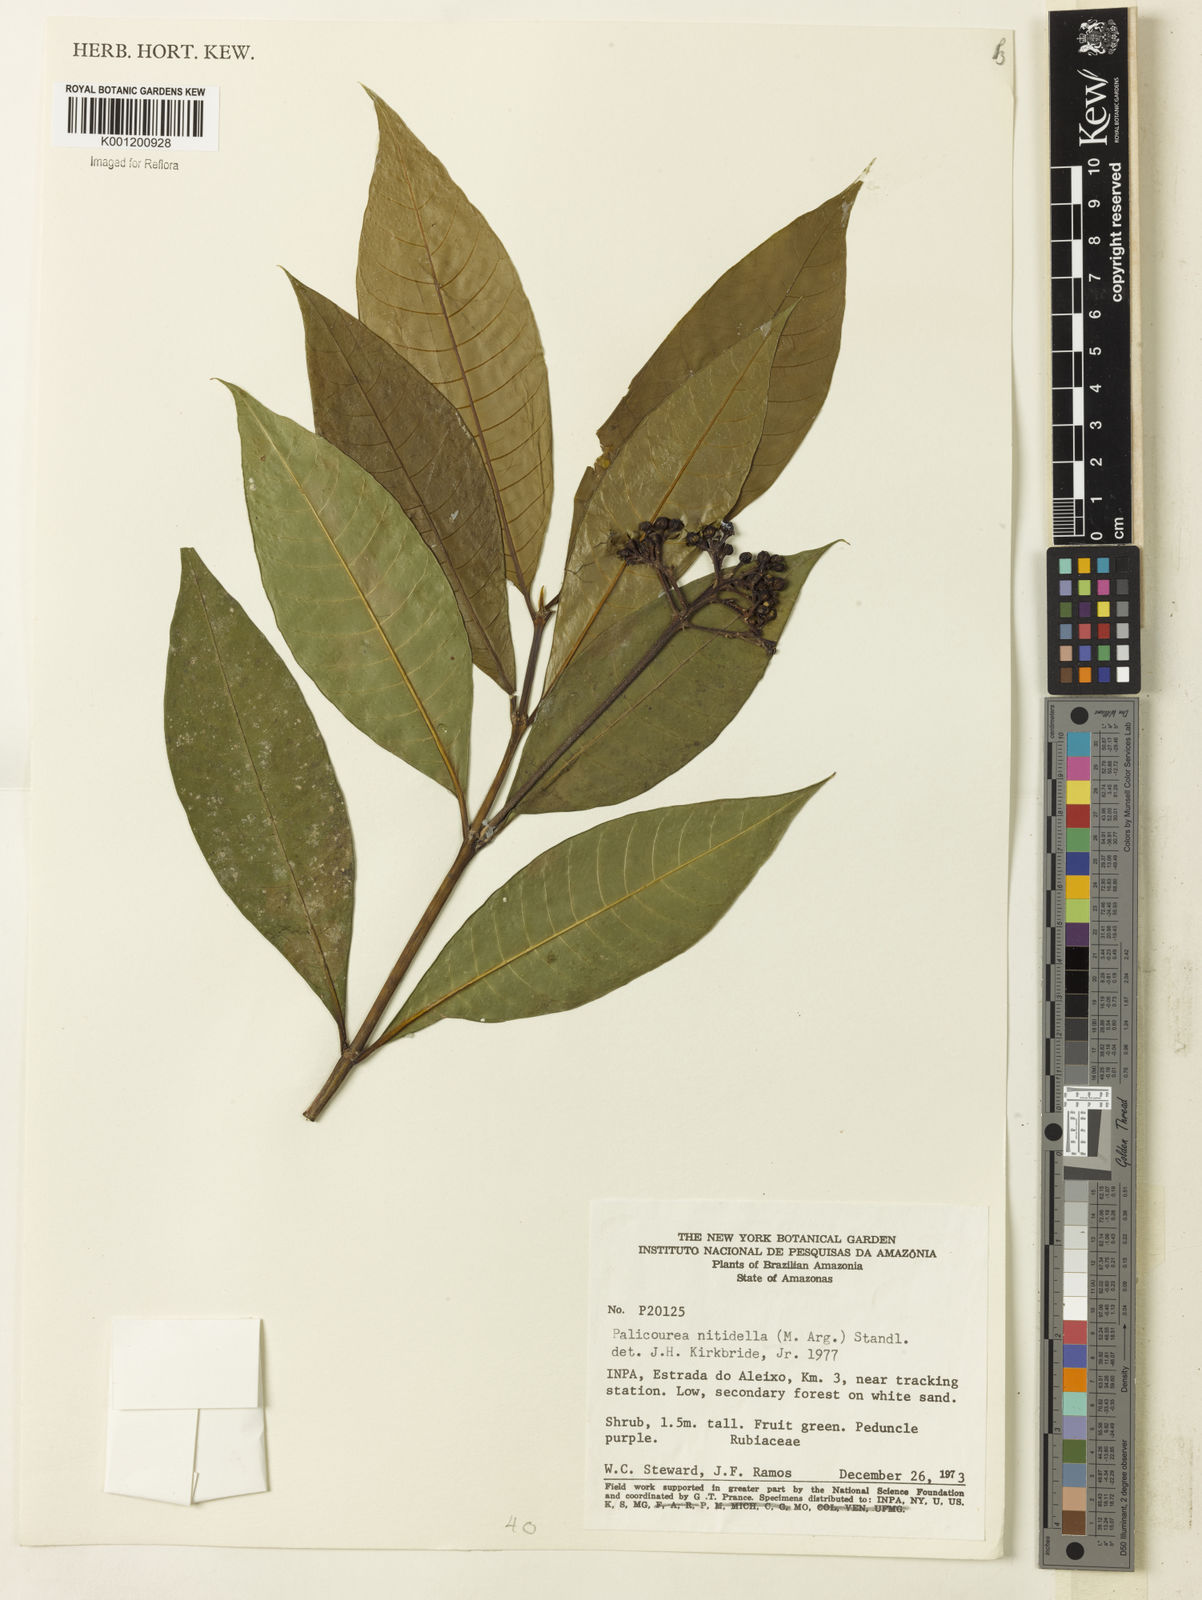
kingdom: Plantae
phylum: Tracheophyta
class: Magnoliopsida
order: Gentianales
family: Rubiaceae
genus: Palicourea
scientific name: Palicourea
